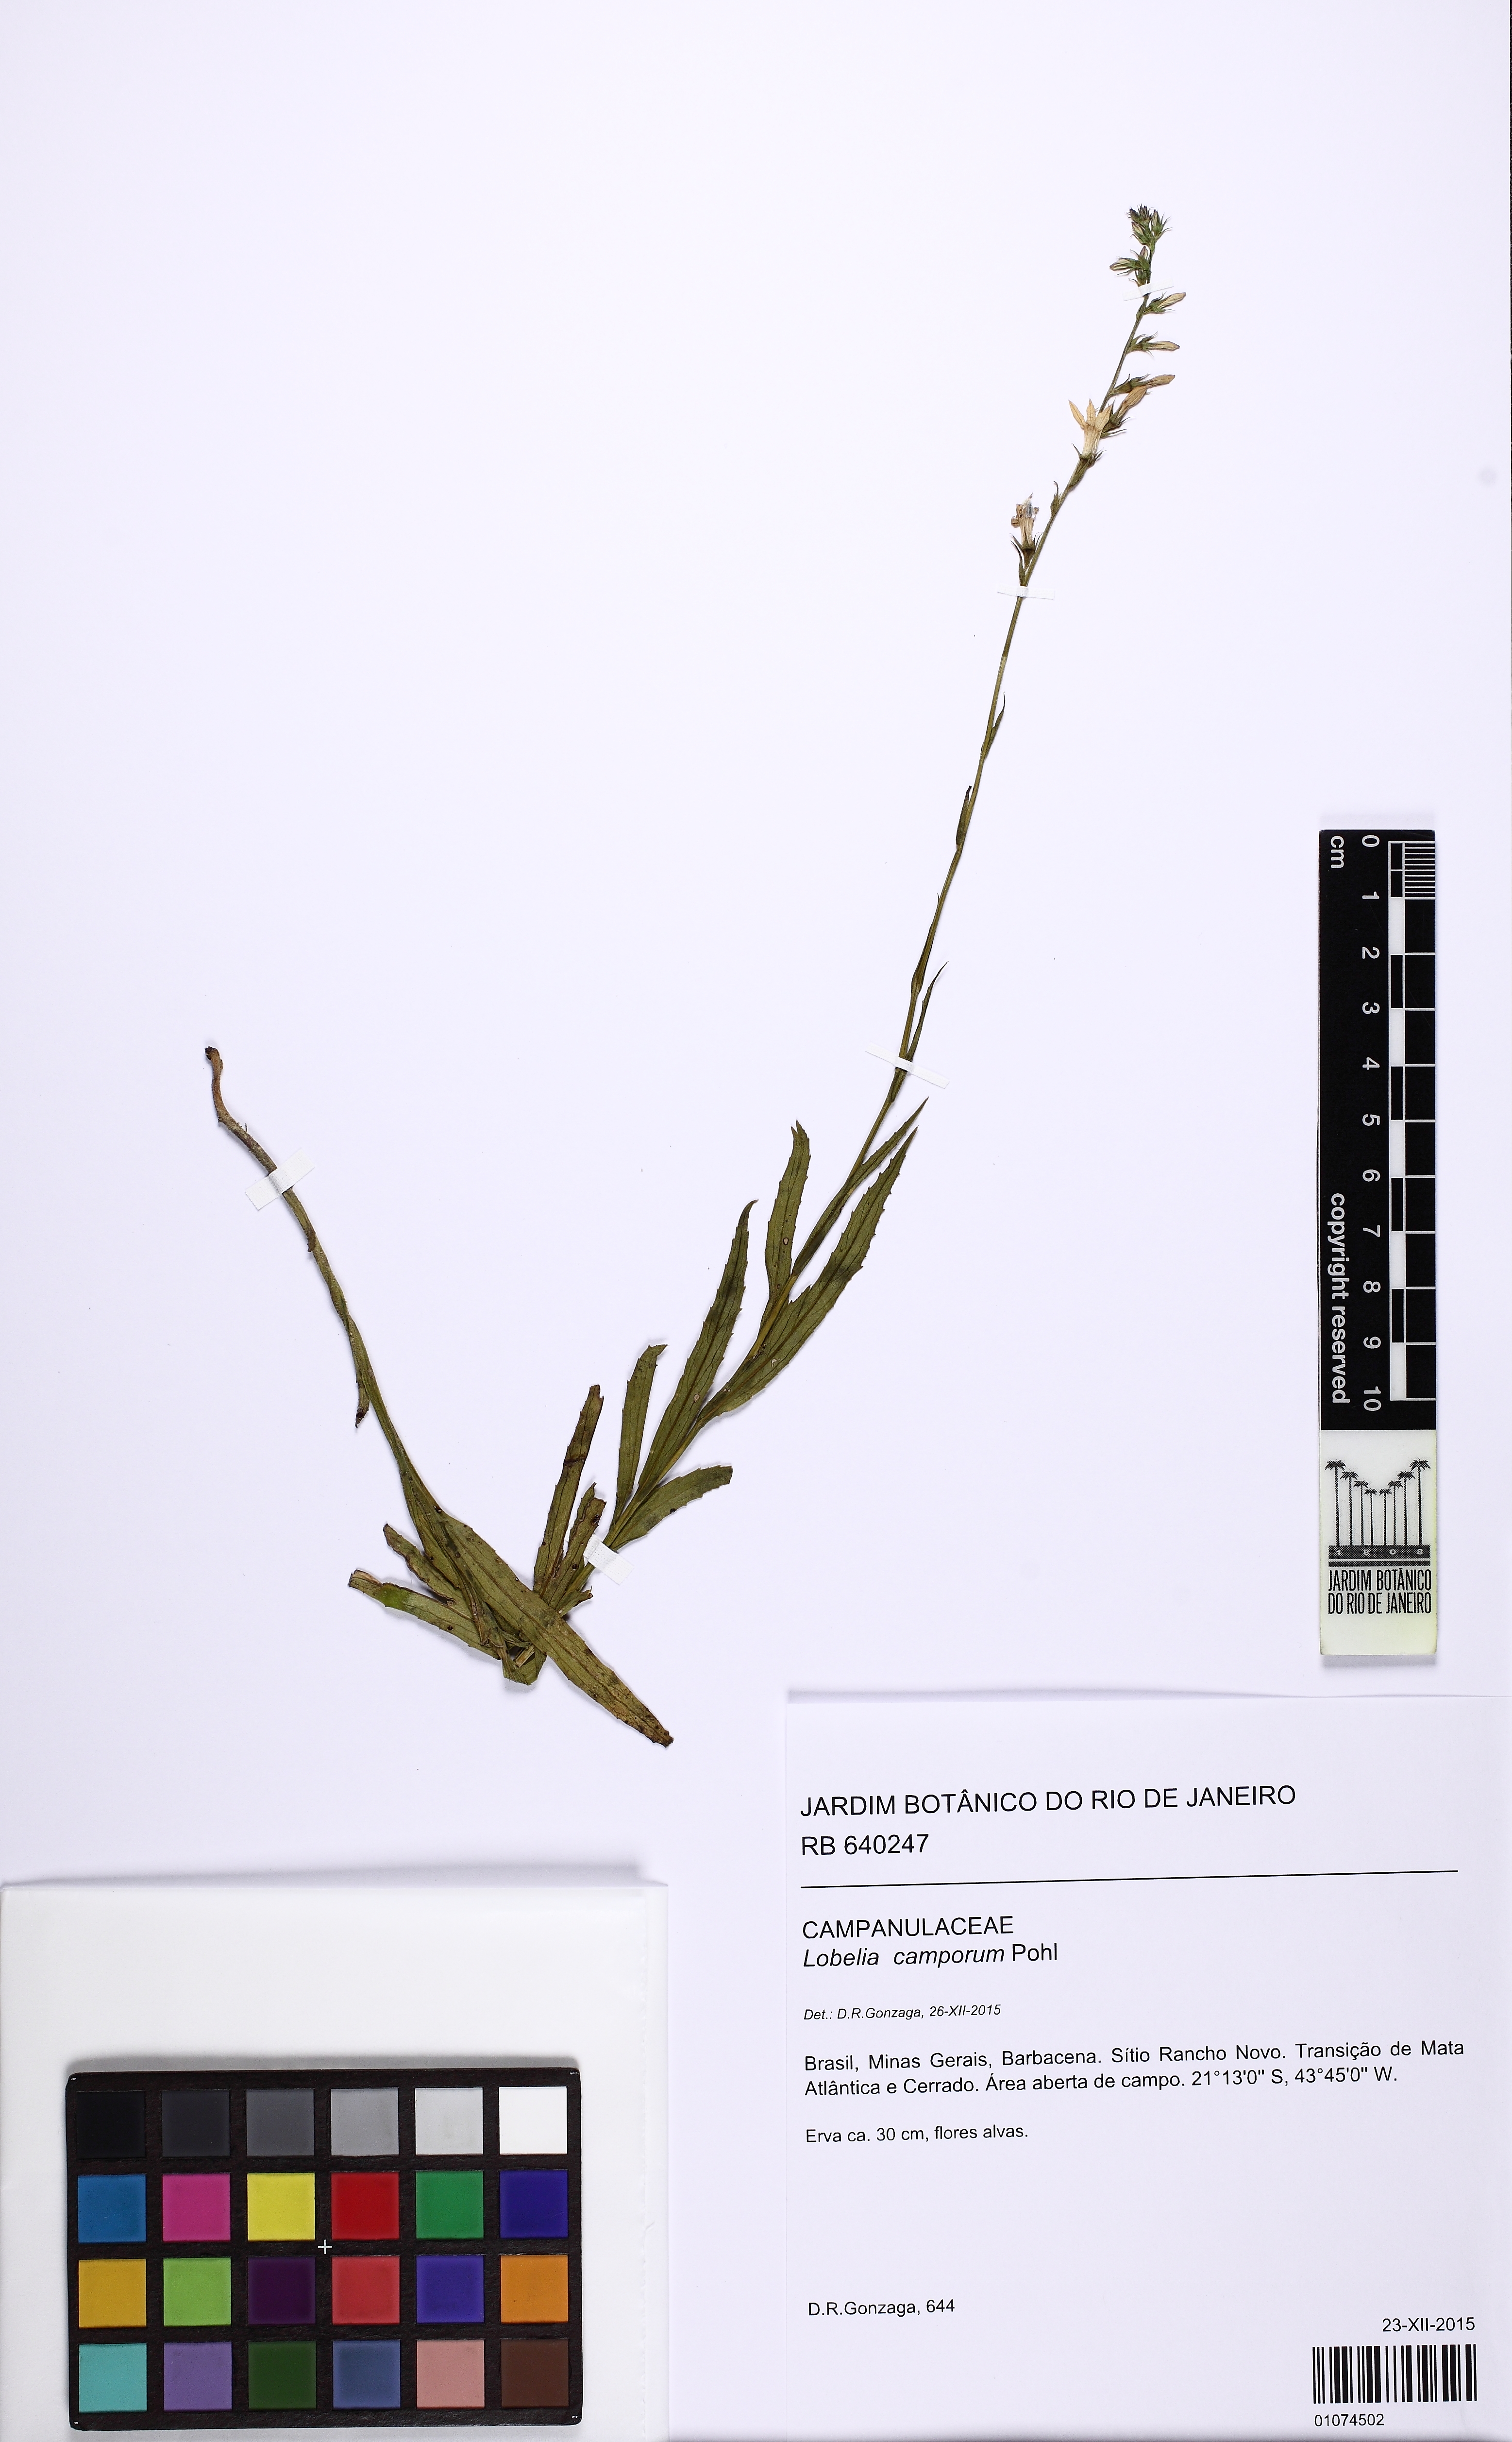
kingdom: Plantae
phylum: Tracheophyta
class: Magnoliopsida
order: Asterales
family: Campanulaceae
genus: Lobelia
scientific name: Lobelia camporum
